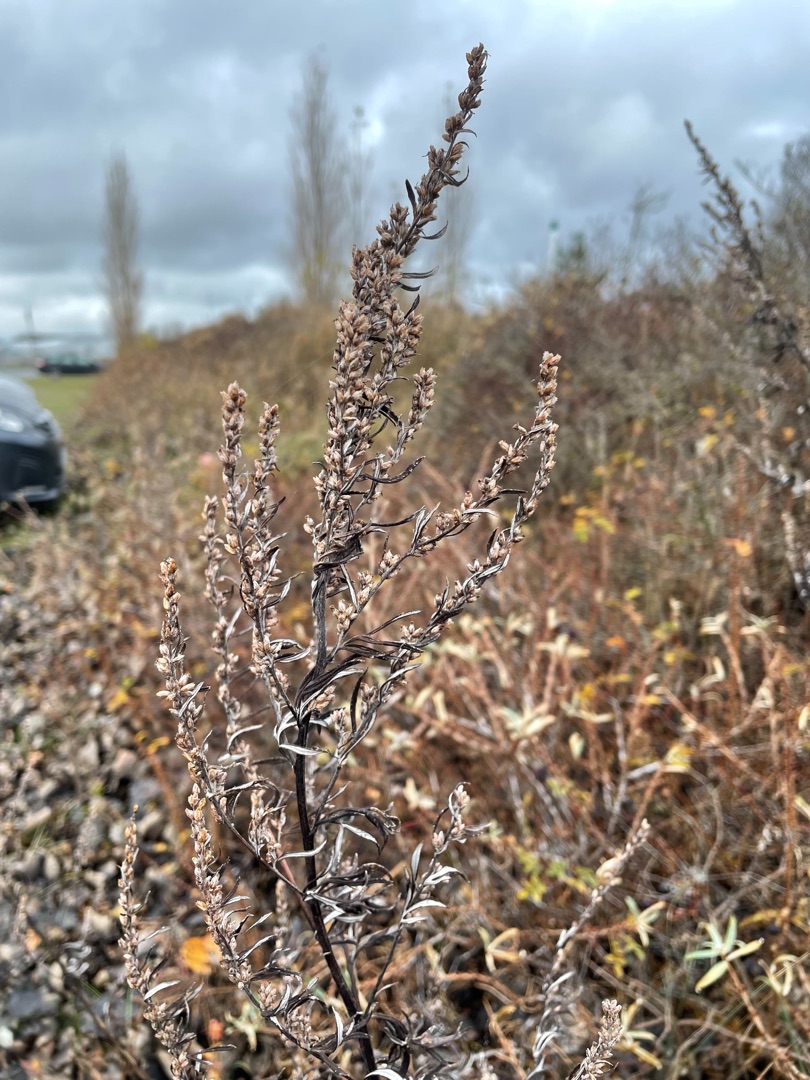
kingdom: Plantae
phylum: Tracheophyta
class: Magnoliopsida
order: Asterales
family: Asteraceae
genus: Artemisia
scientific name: Artemisia vulgaris
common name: Grå-bynke
